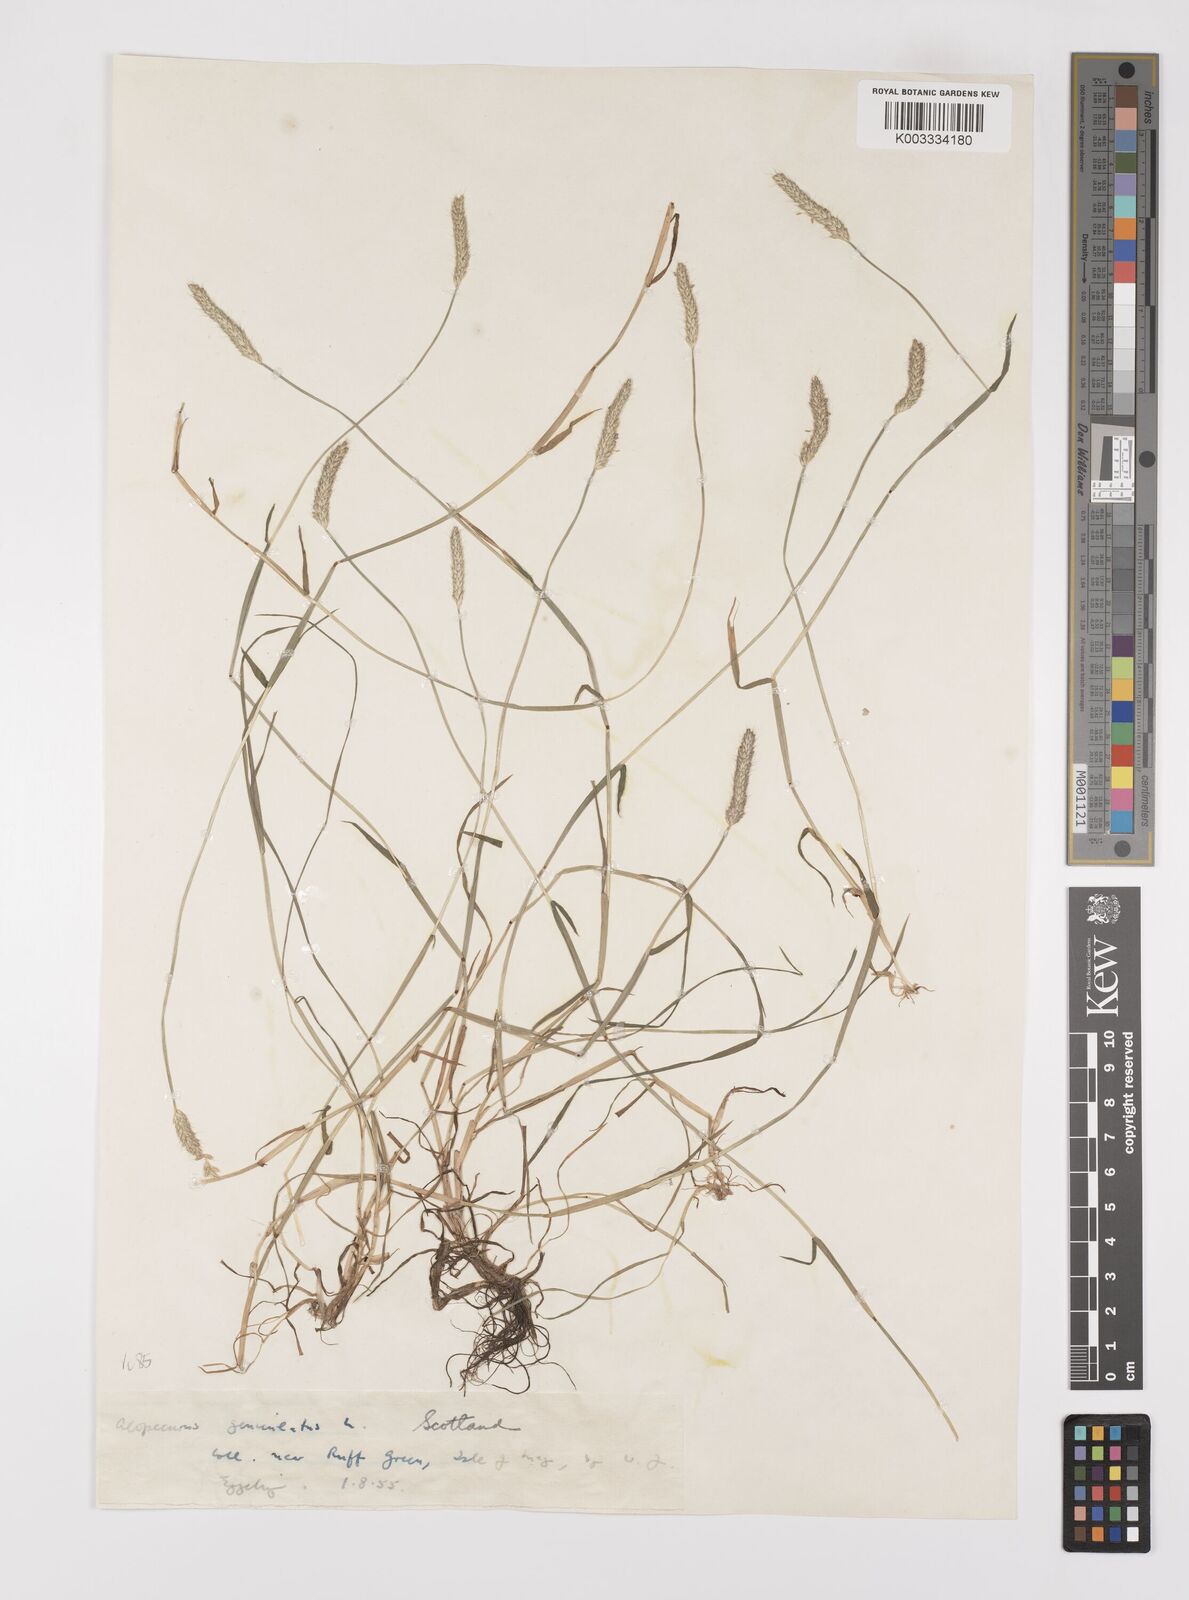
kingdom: Plantae
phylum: Tracheophyta
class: Liliopsida
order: Poales
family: Poaceae
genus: Alopecurus
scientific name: Alopecurus geniculatus
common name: Water foxtail
